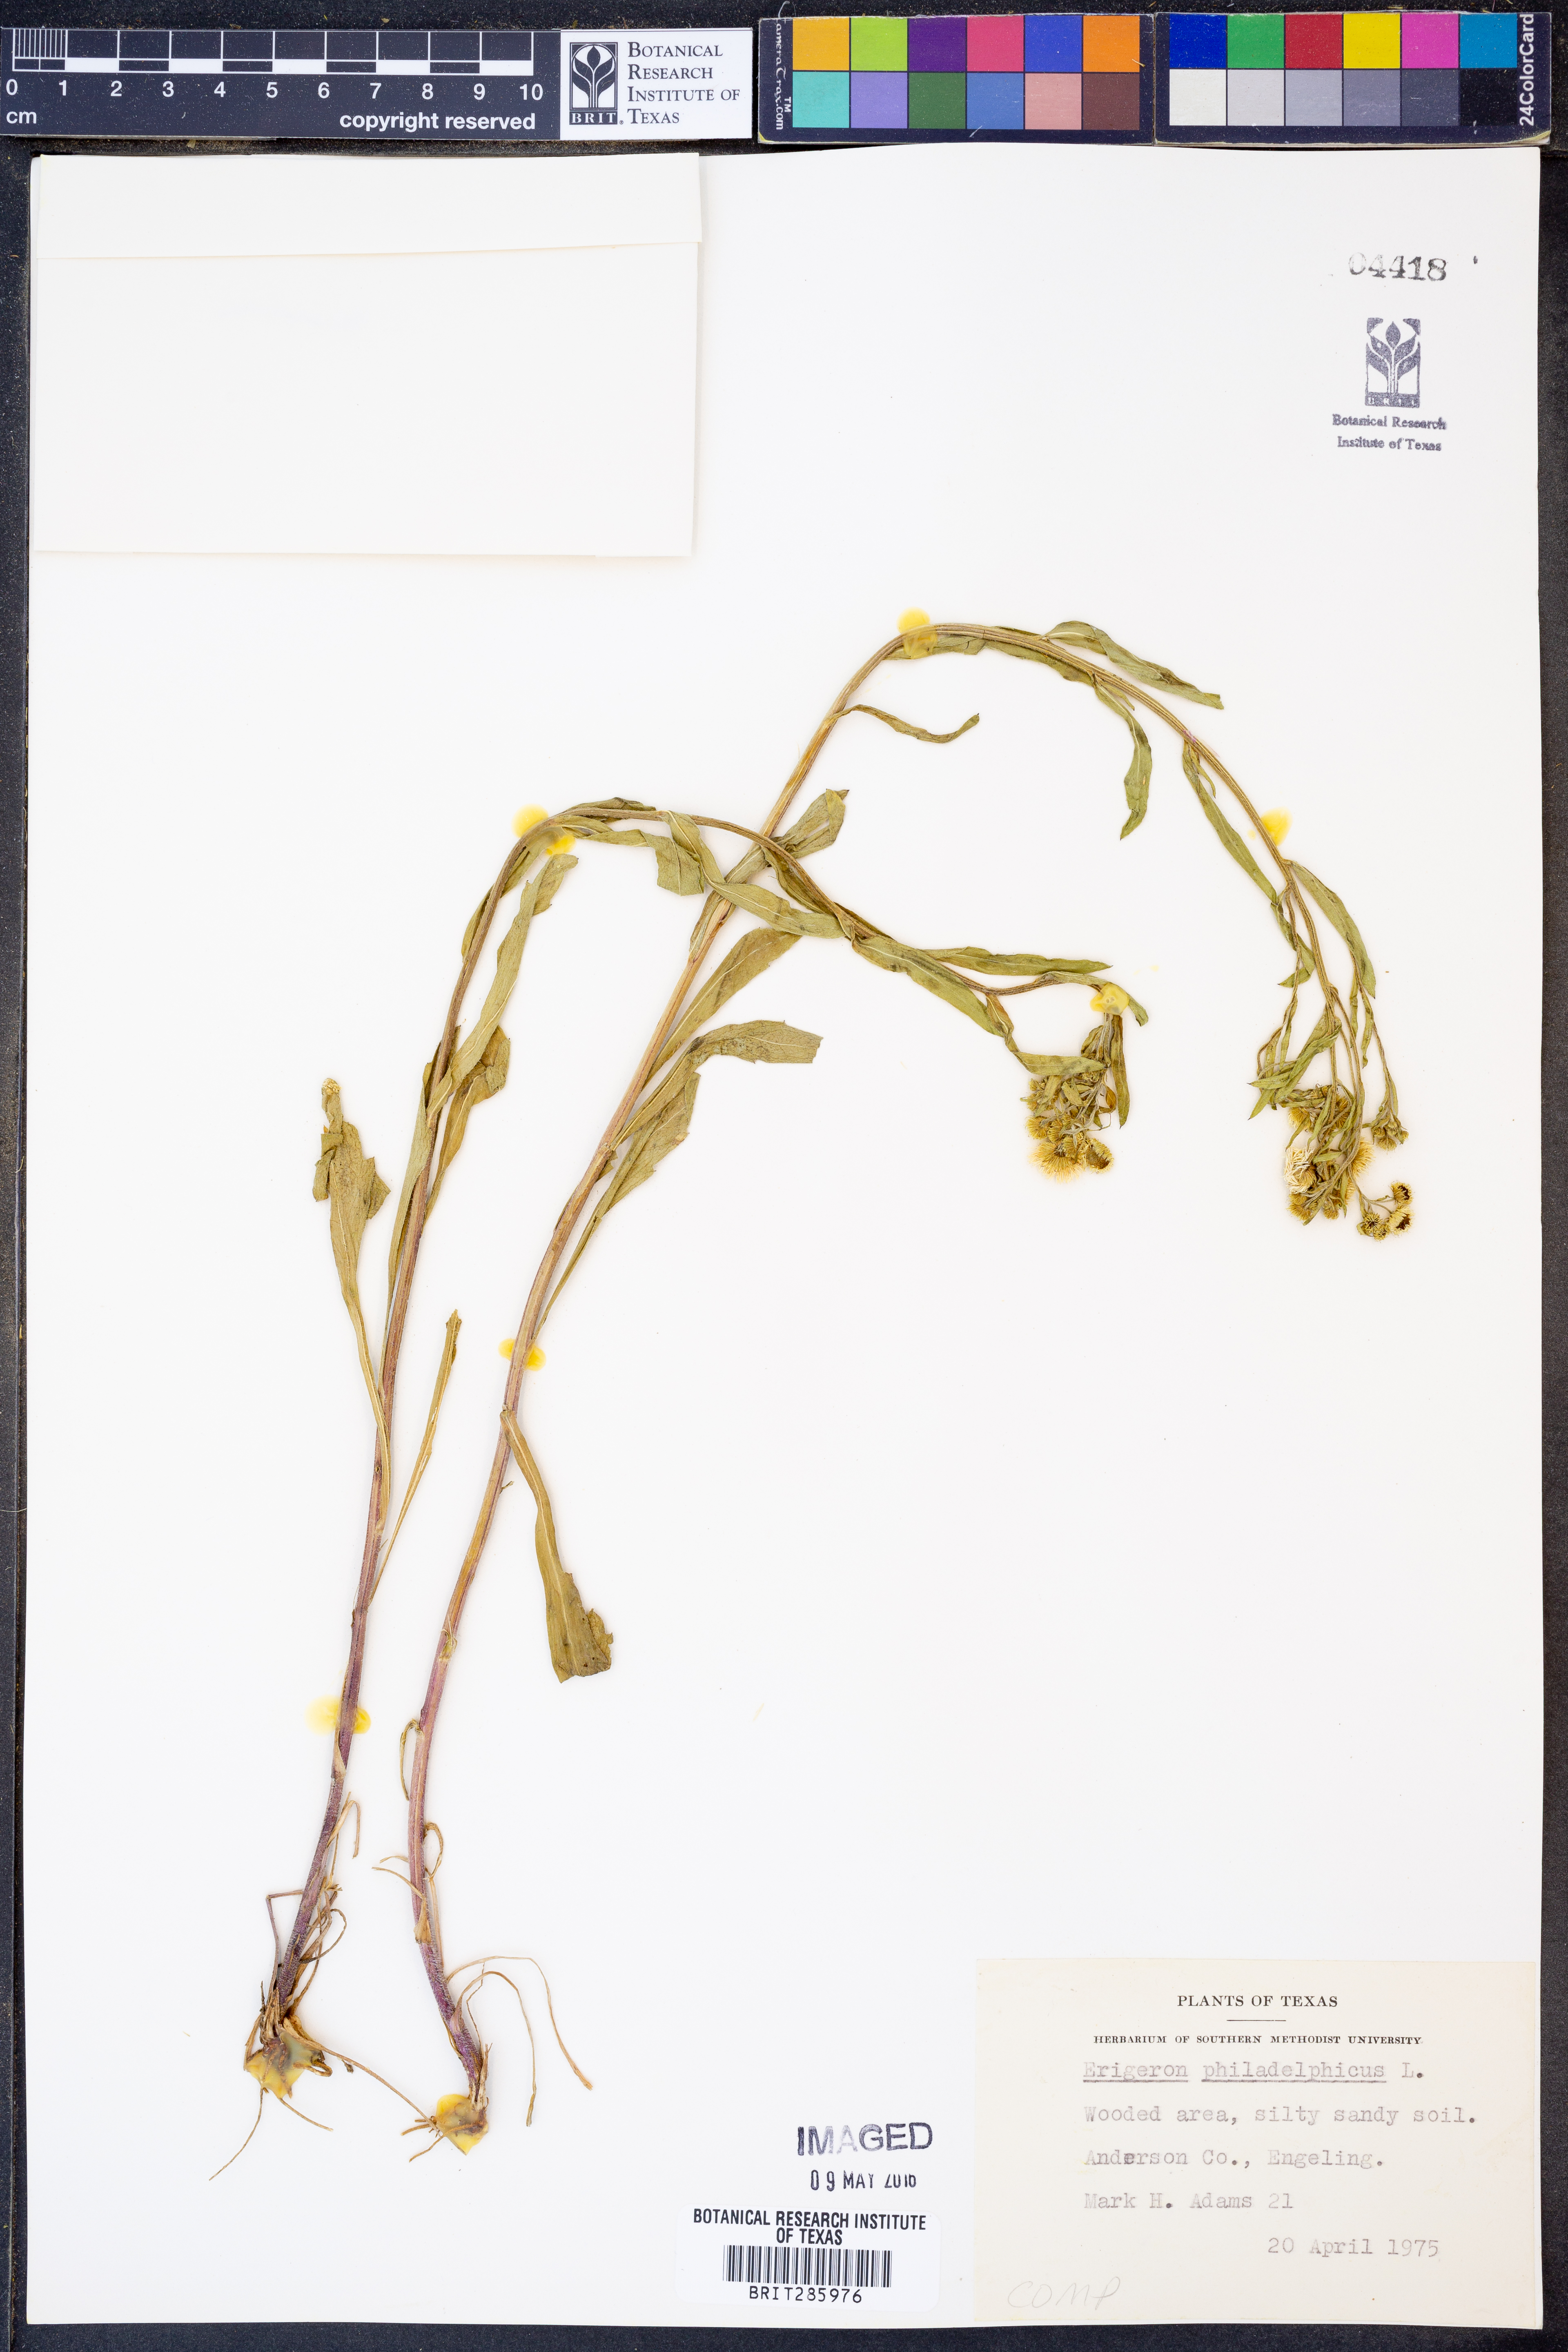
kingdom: Plantae
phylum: Tracheophyta
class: Magnoliopsida
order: Asterales
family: Asteraceae
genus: Erigeron
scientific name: Erigeron philadelphicus
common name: Robin's-plantain
